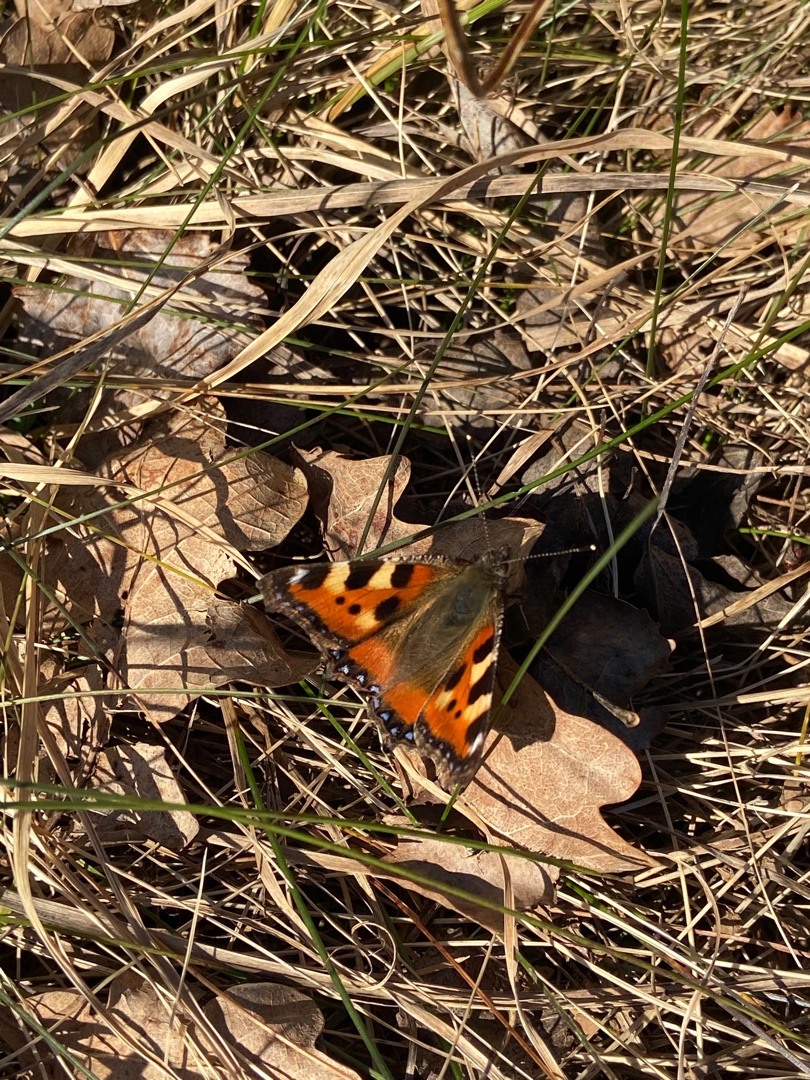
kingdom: Animalia
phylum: Arthropoda
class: Insecta
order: Lepidoptera
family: Nymphalidae
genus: Aglais
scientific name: Aglais urticae
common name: Nældens takvinge
